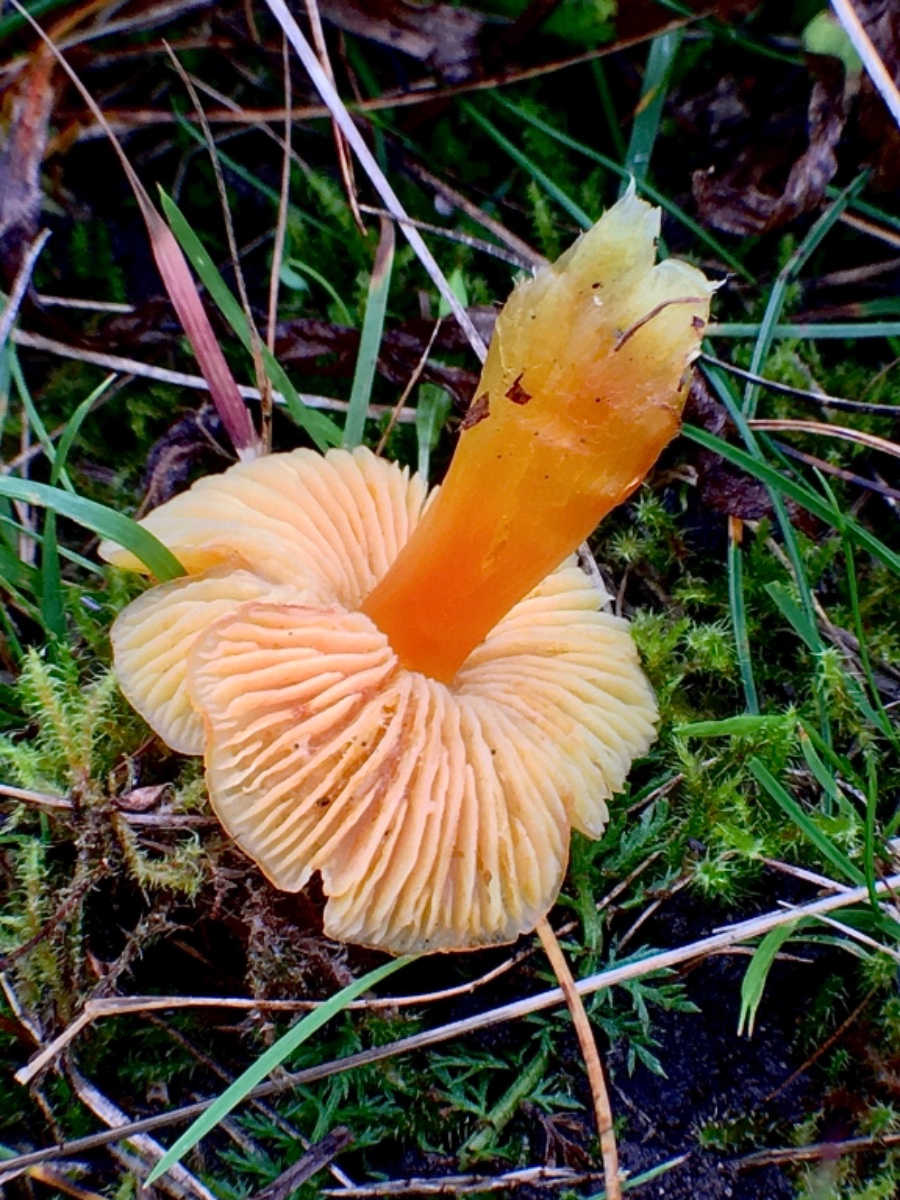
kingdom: Fungi
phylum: Basidiomycota
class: Agaricomycetes
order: Agaricales
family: Hygrophoraceae
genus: Hygrocybe
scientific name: Hygrocybe
